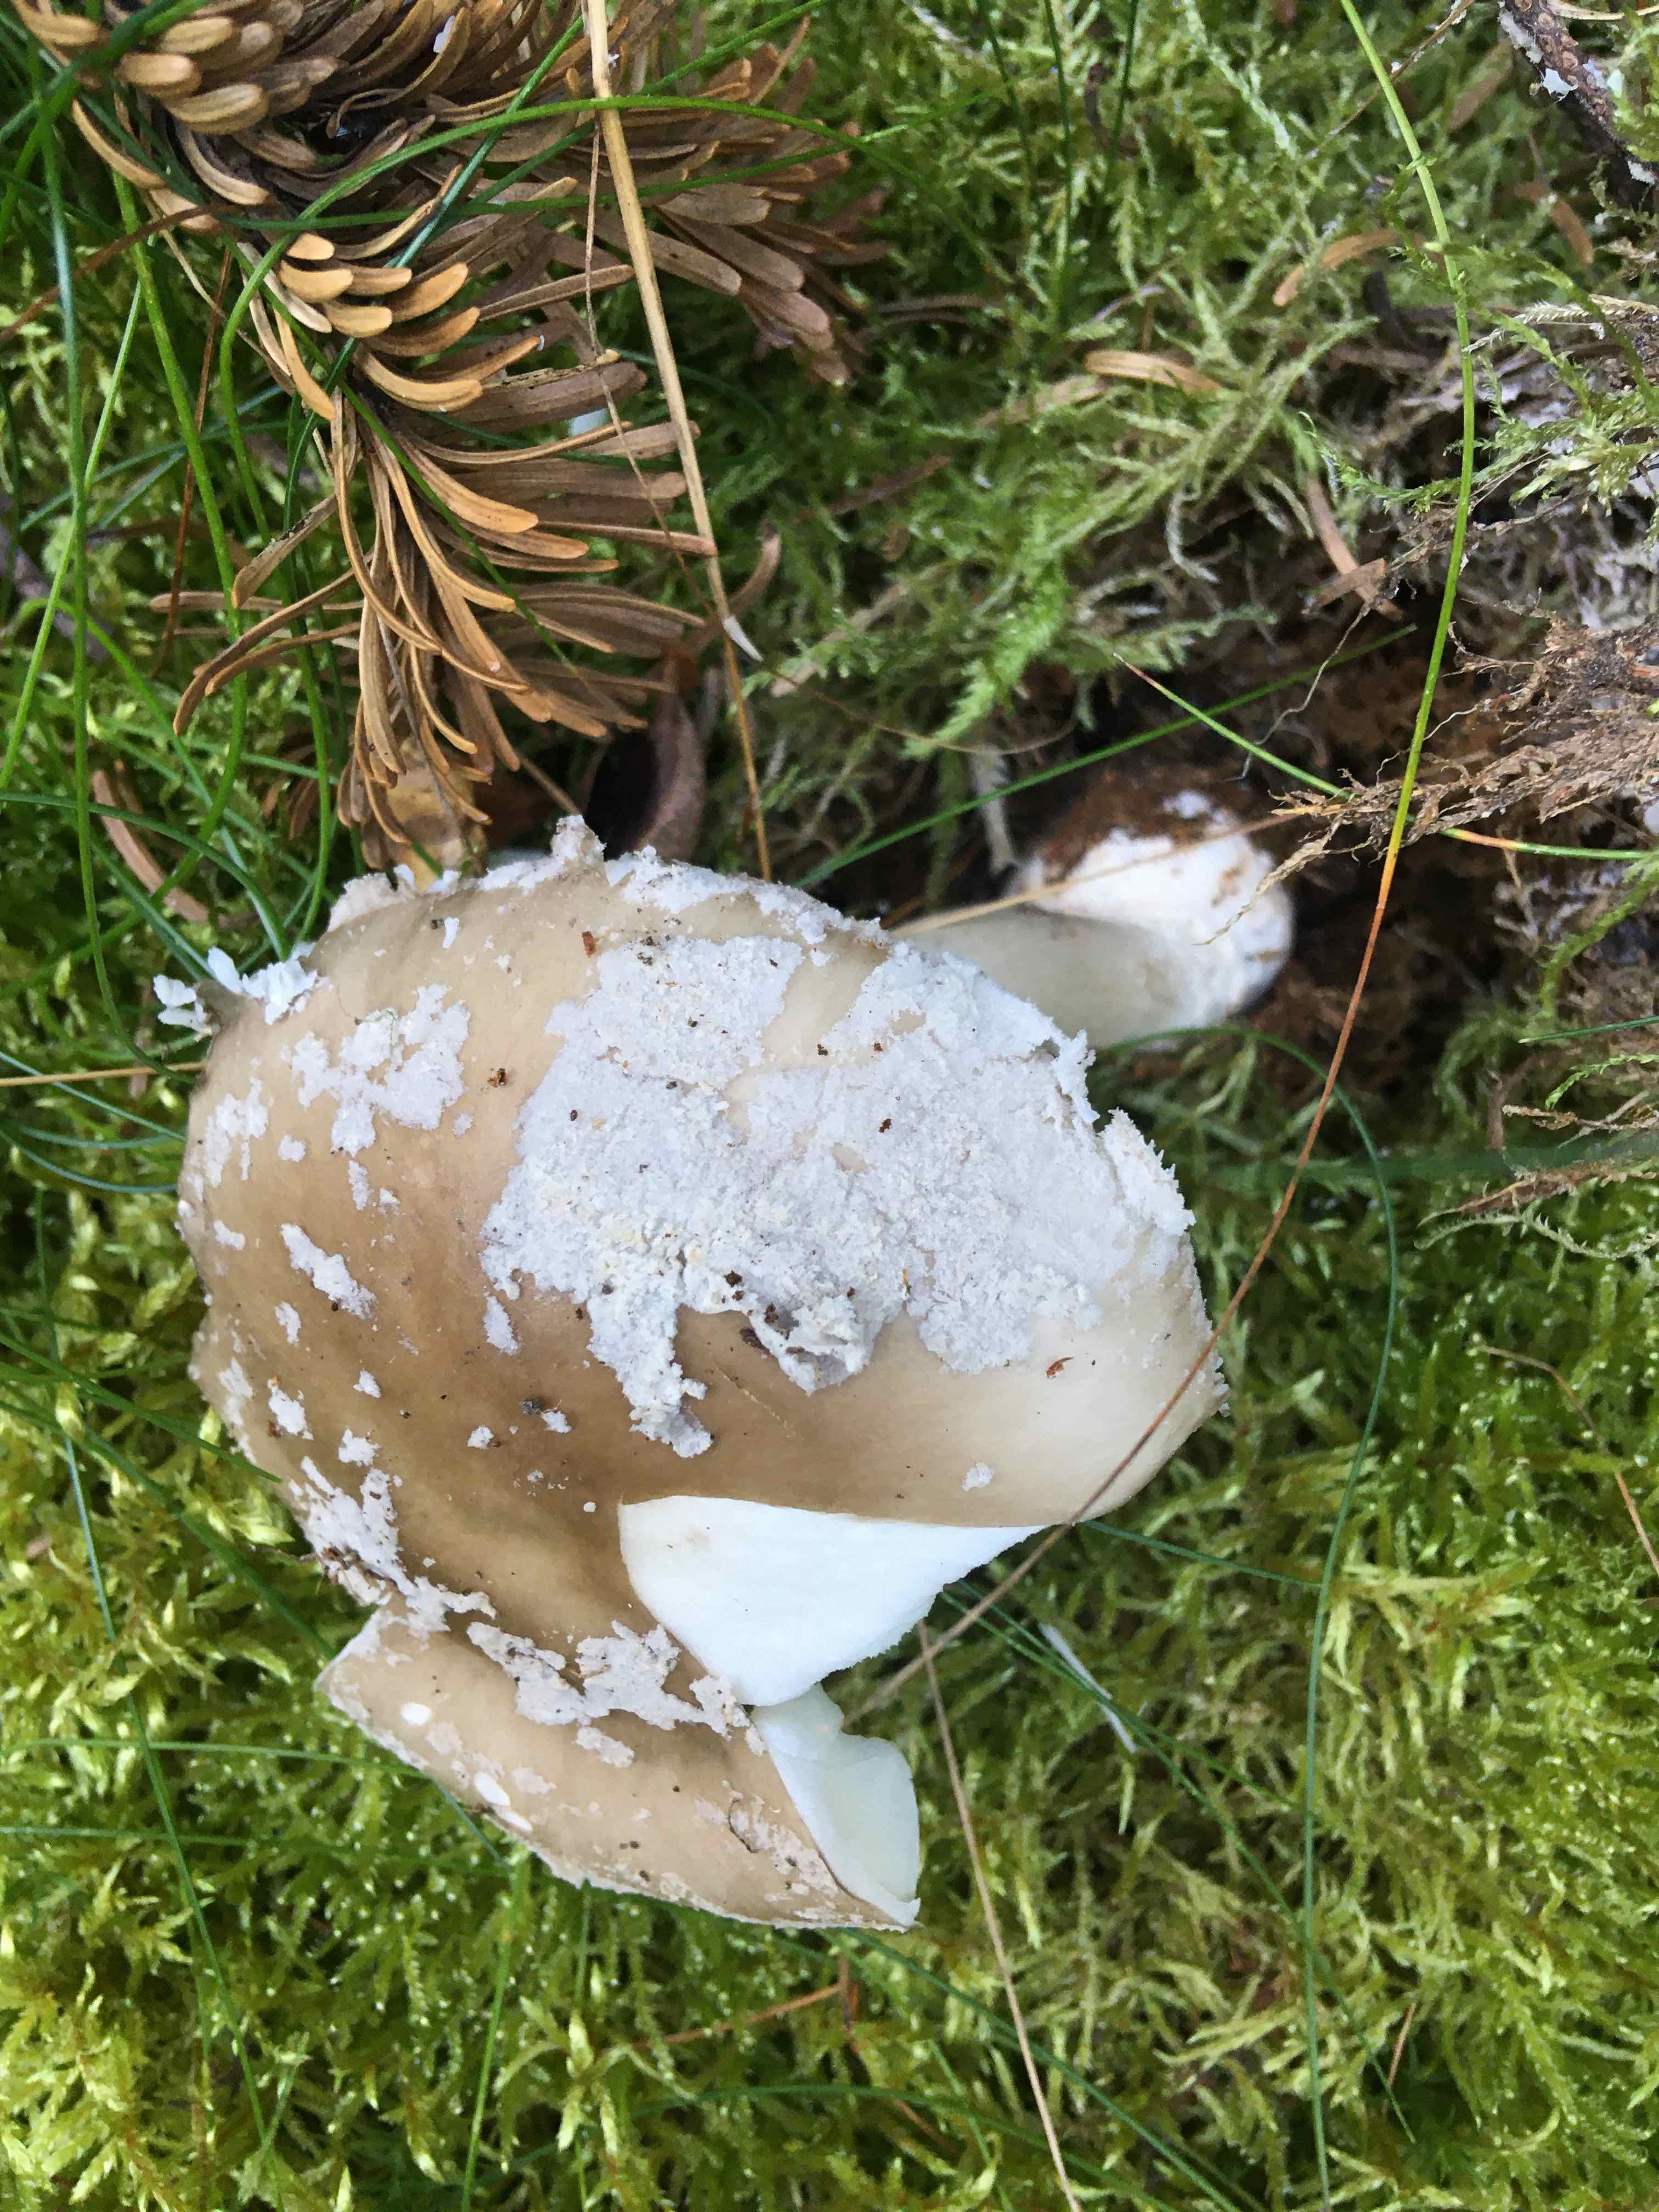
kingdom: Fungi
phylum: Basidiomycota
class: Agaricomycetes
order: Agaricales
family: Amanitaceae
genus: Amanita
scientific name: Amanita
